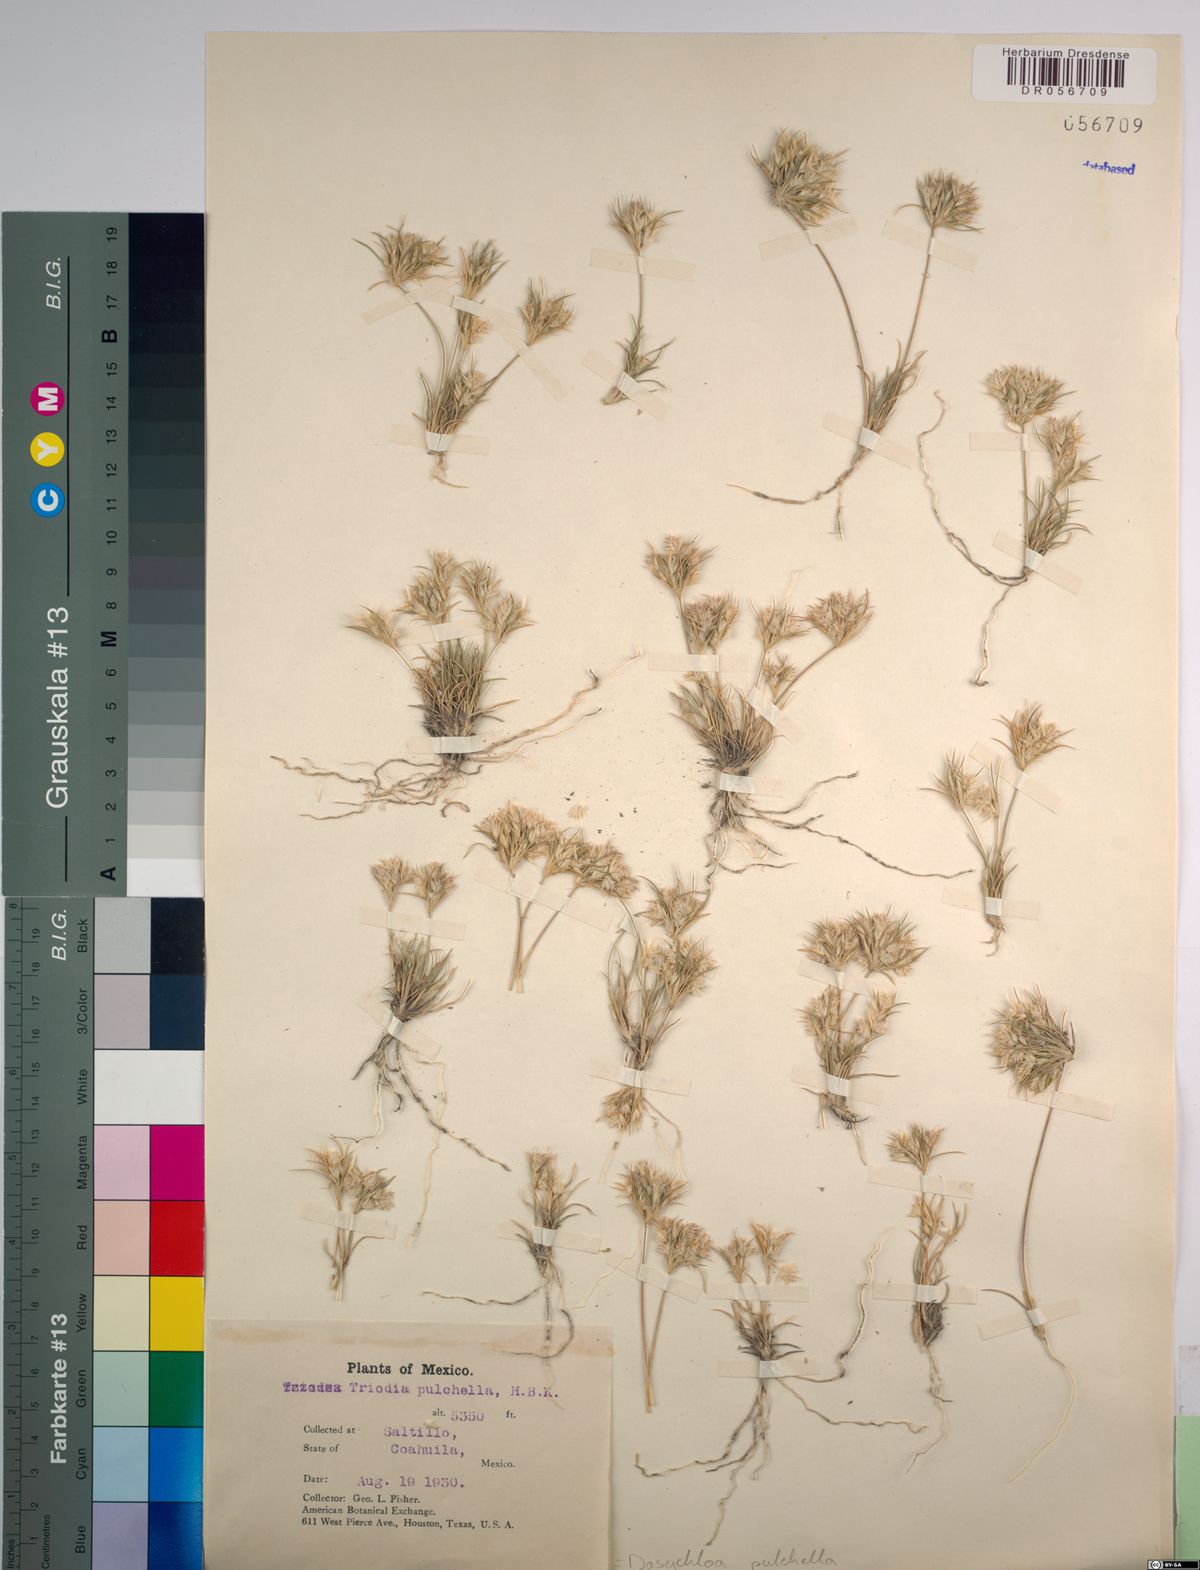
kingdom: Plantae
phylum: Tracheophyta
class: Liliopsida
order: Poales
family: Poaceae
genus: Munroa
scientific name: Munroa pulchella
